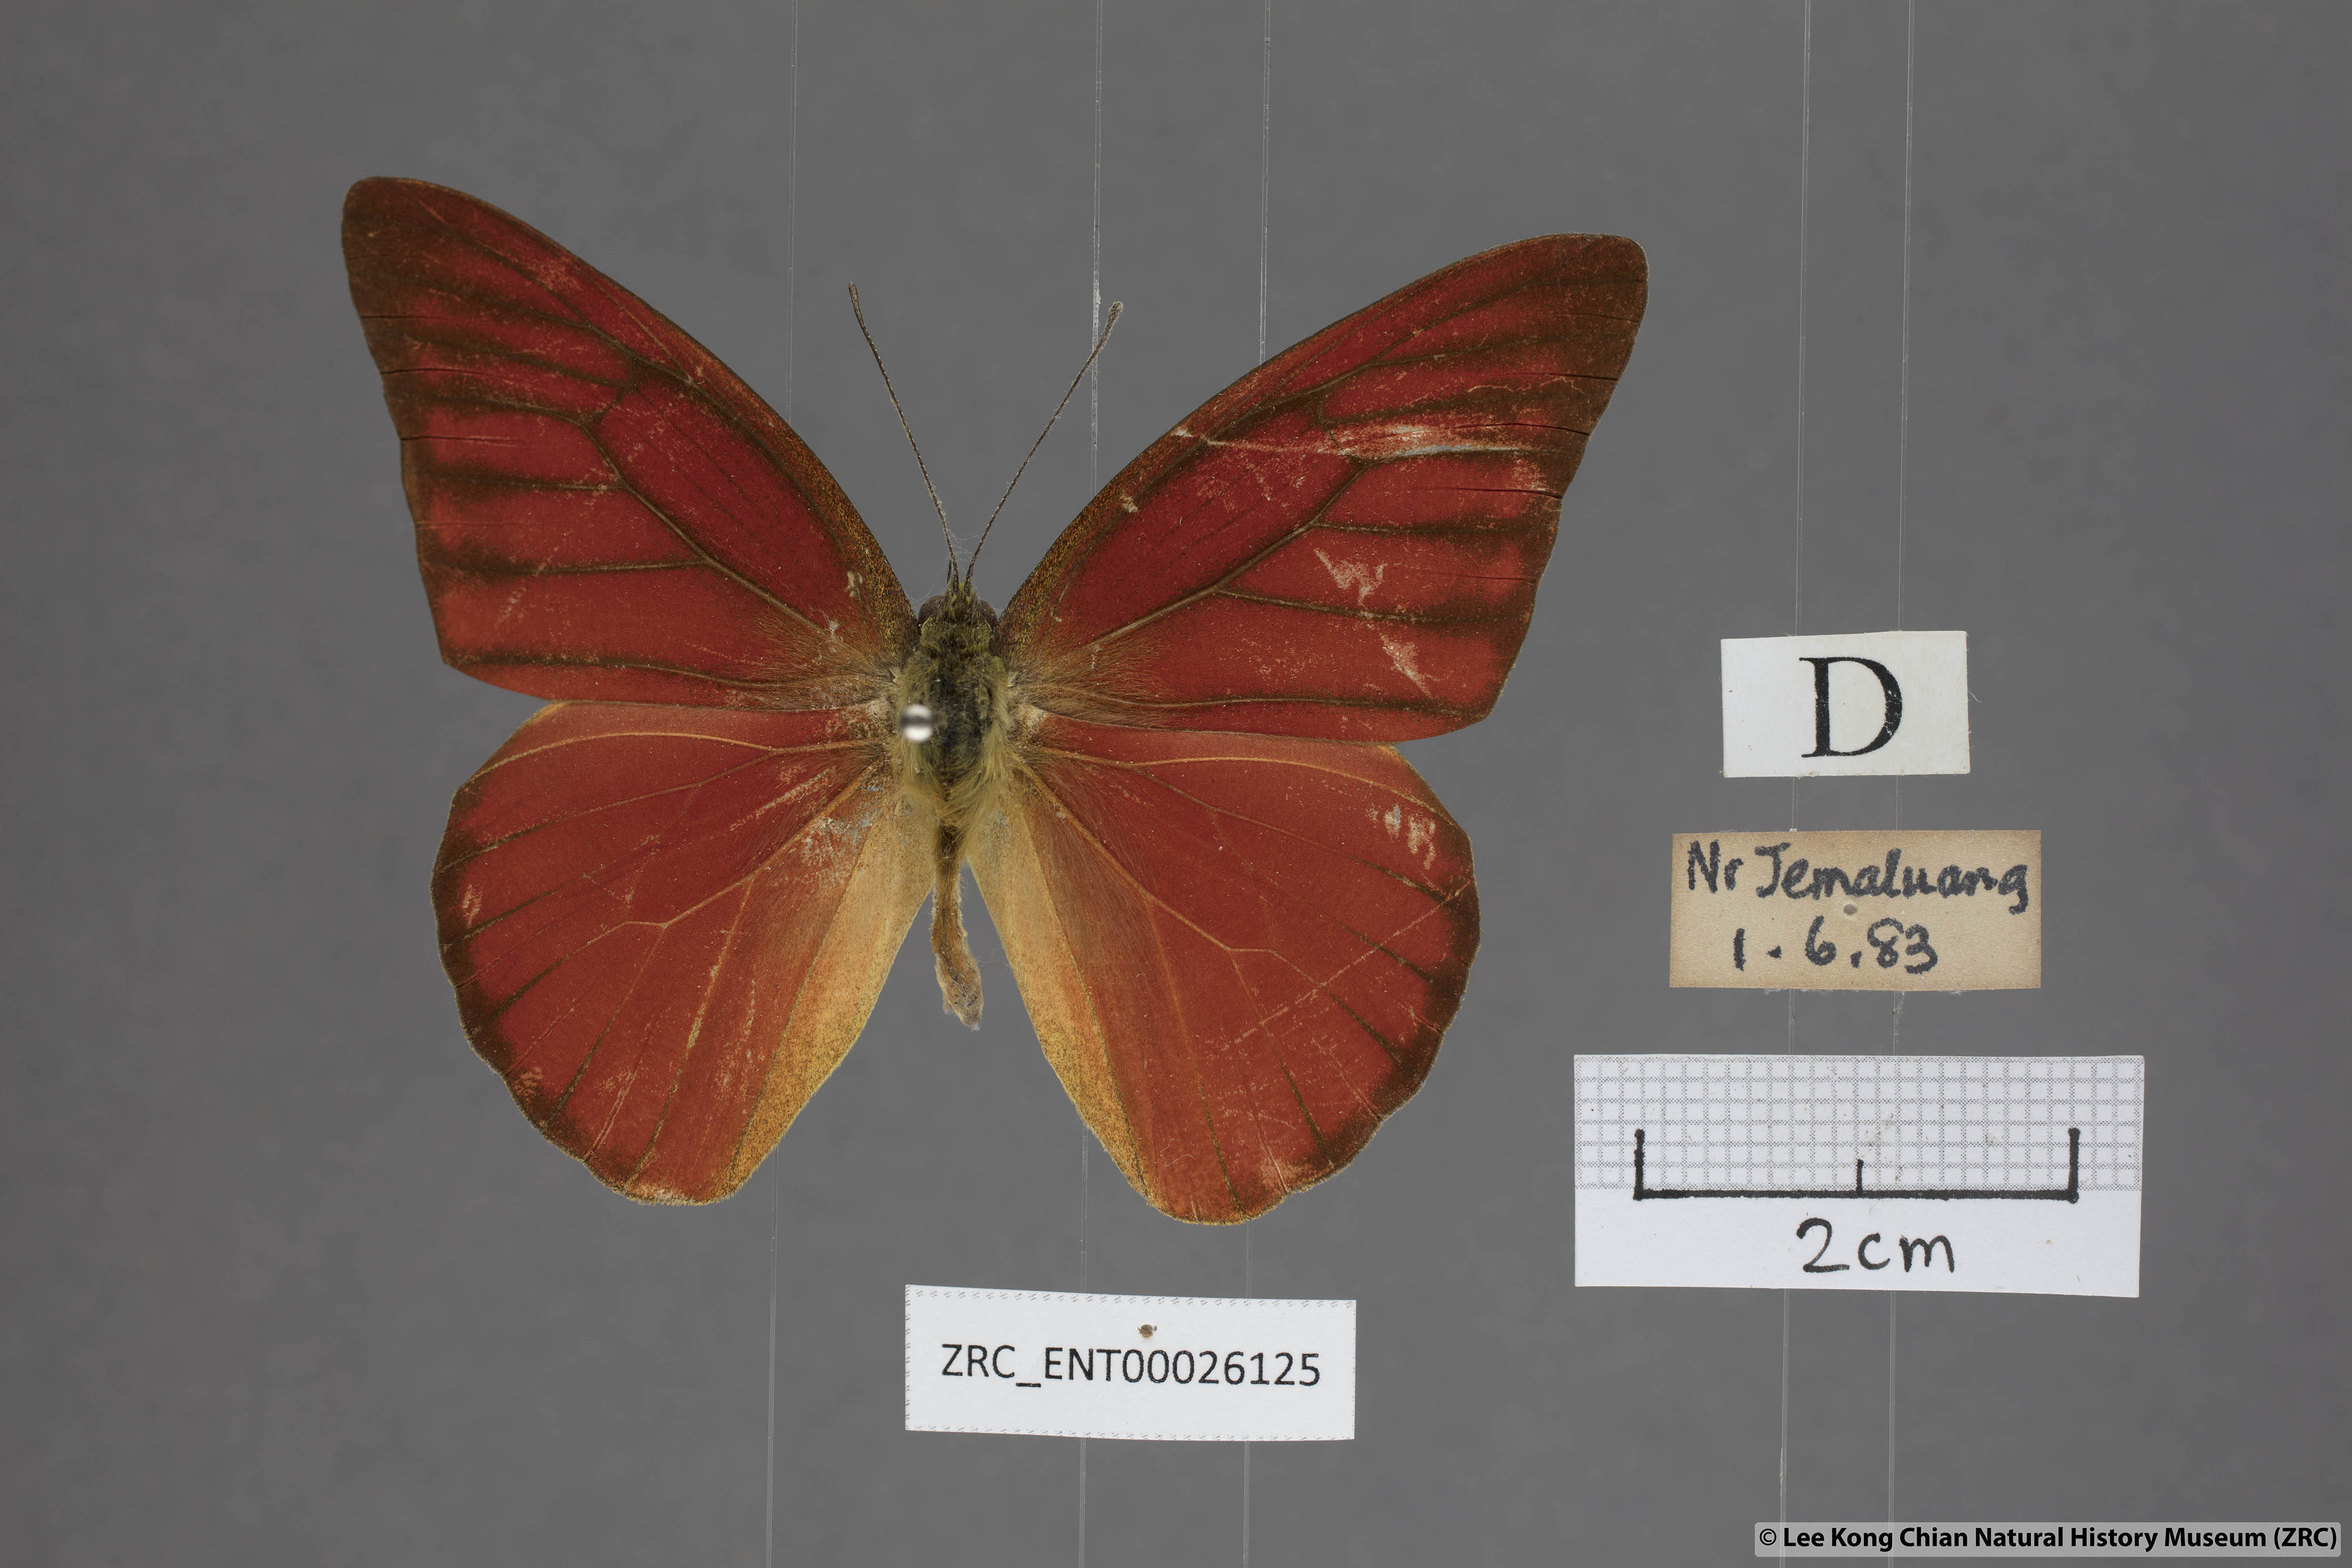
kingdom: Animalia
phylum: Arthropoda
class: Insecta
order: Lepidoptera
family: Pieridae
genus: Appias
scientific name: Appias nero
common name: Orange albatross
